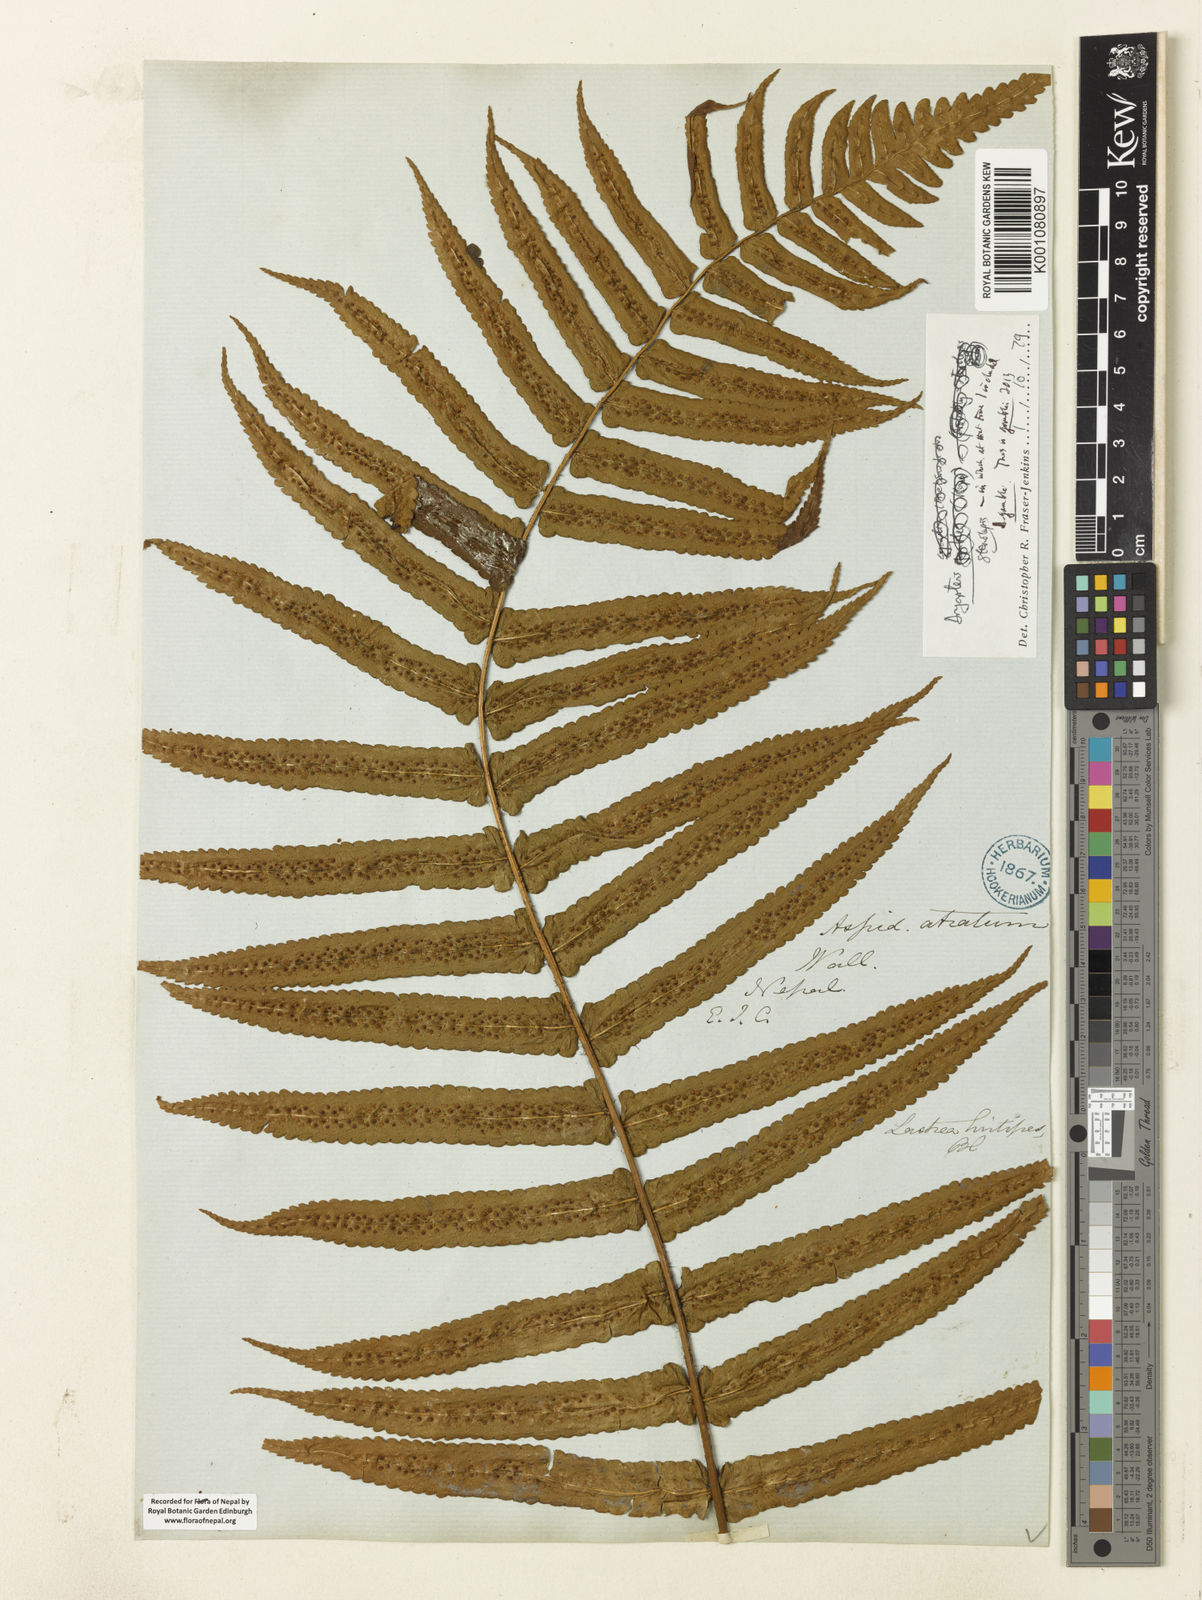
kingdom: Plantae
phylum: Tracheophyta
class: Polypodiopsida
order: Polypodiales
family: Dryopteridaceae
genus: Dryopteris
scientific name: Dryopteris stenolepis
